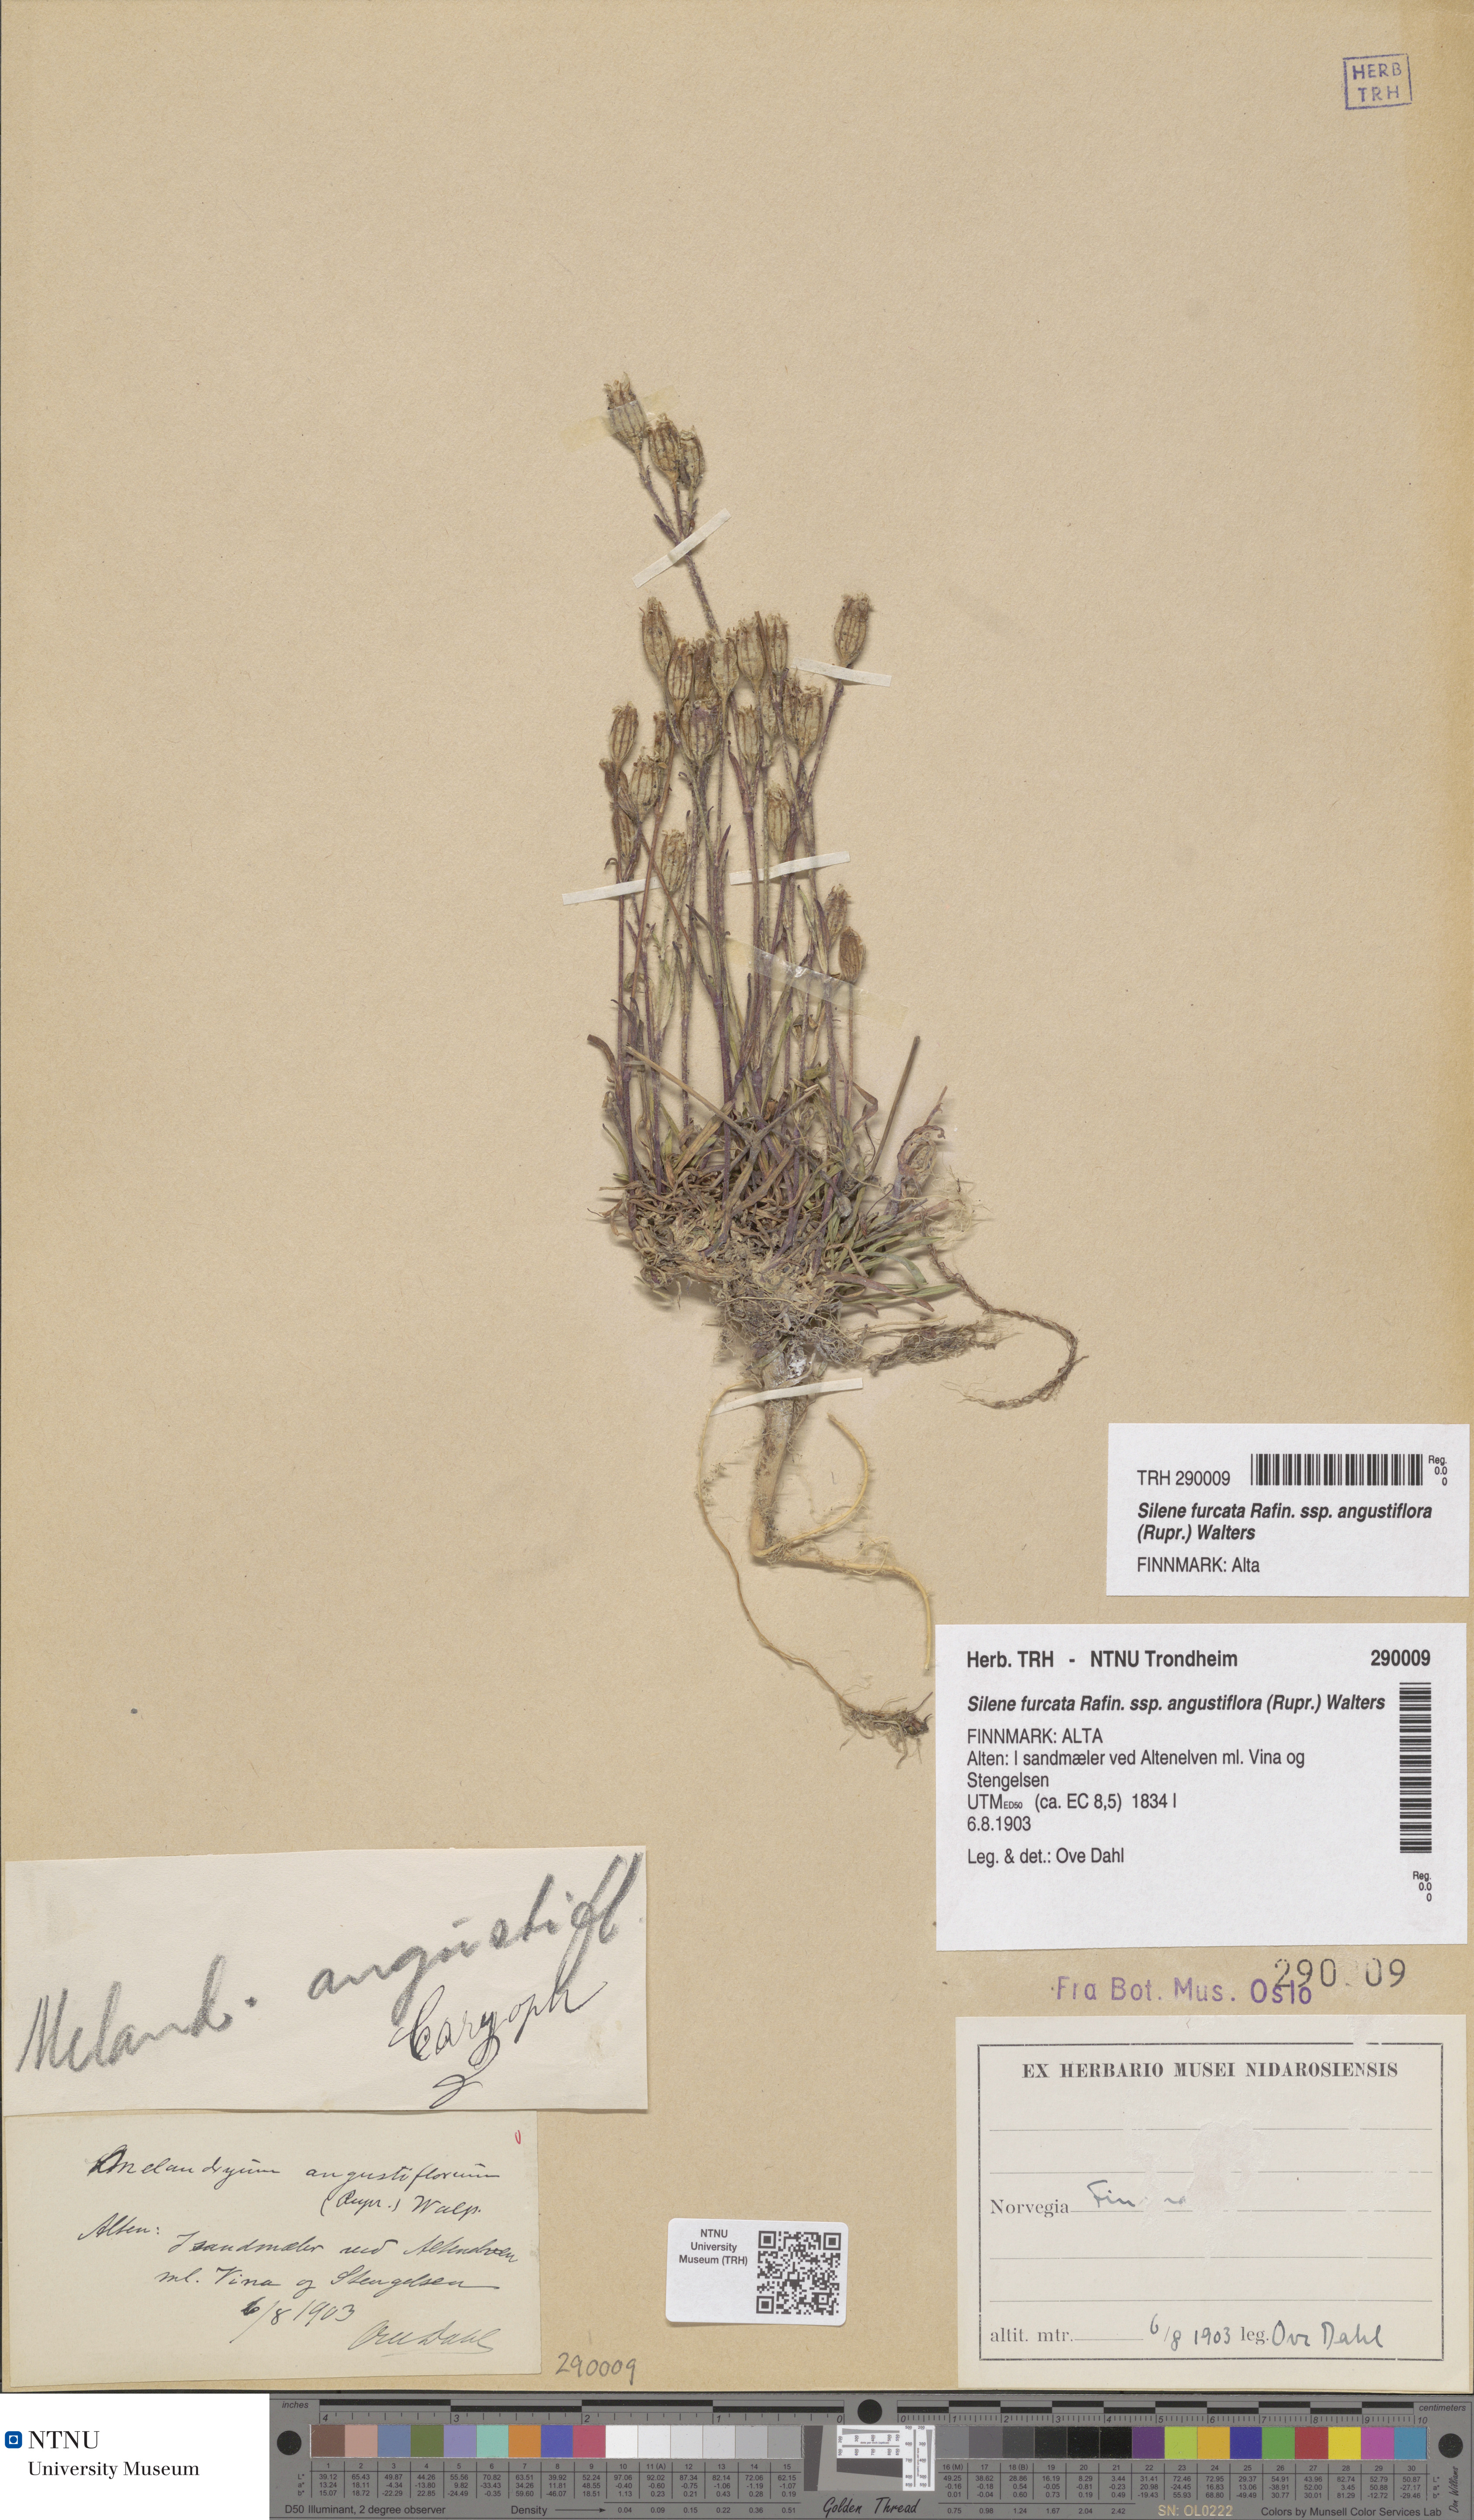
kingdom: Plantae
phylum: Tracheophyta
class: Magnoliopsida
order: Caryophyllales
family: Caryophyllaceae
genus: Silene
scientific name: Silene involucrata
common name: Greater arctic campion
